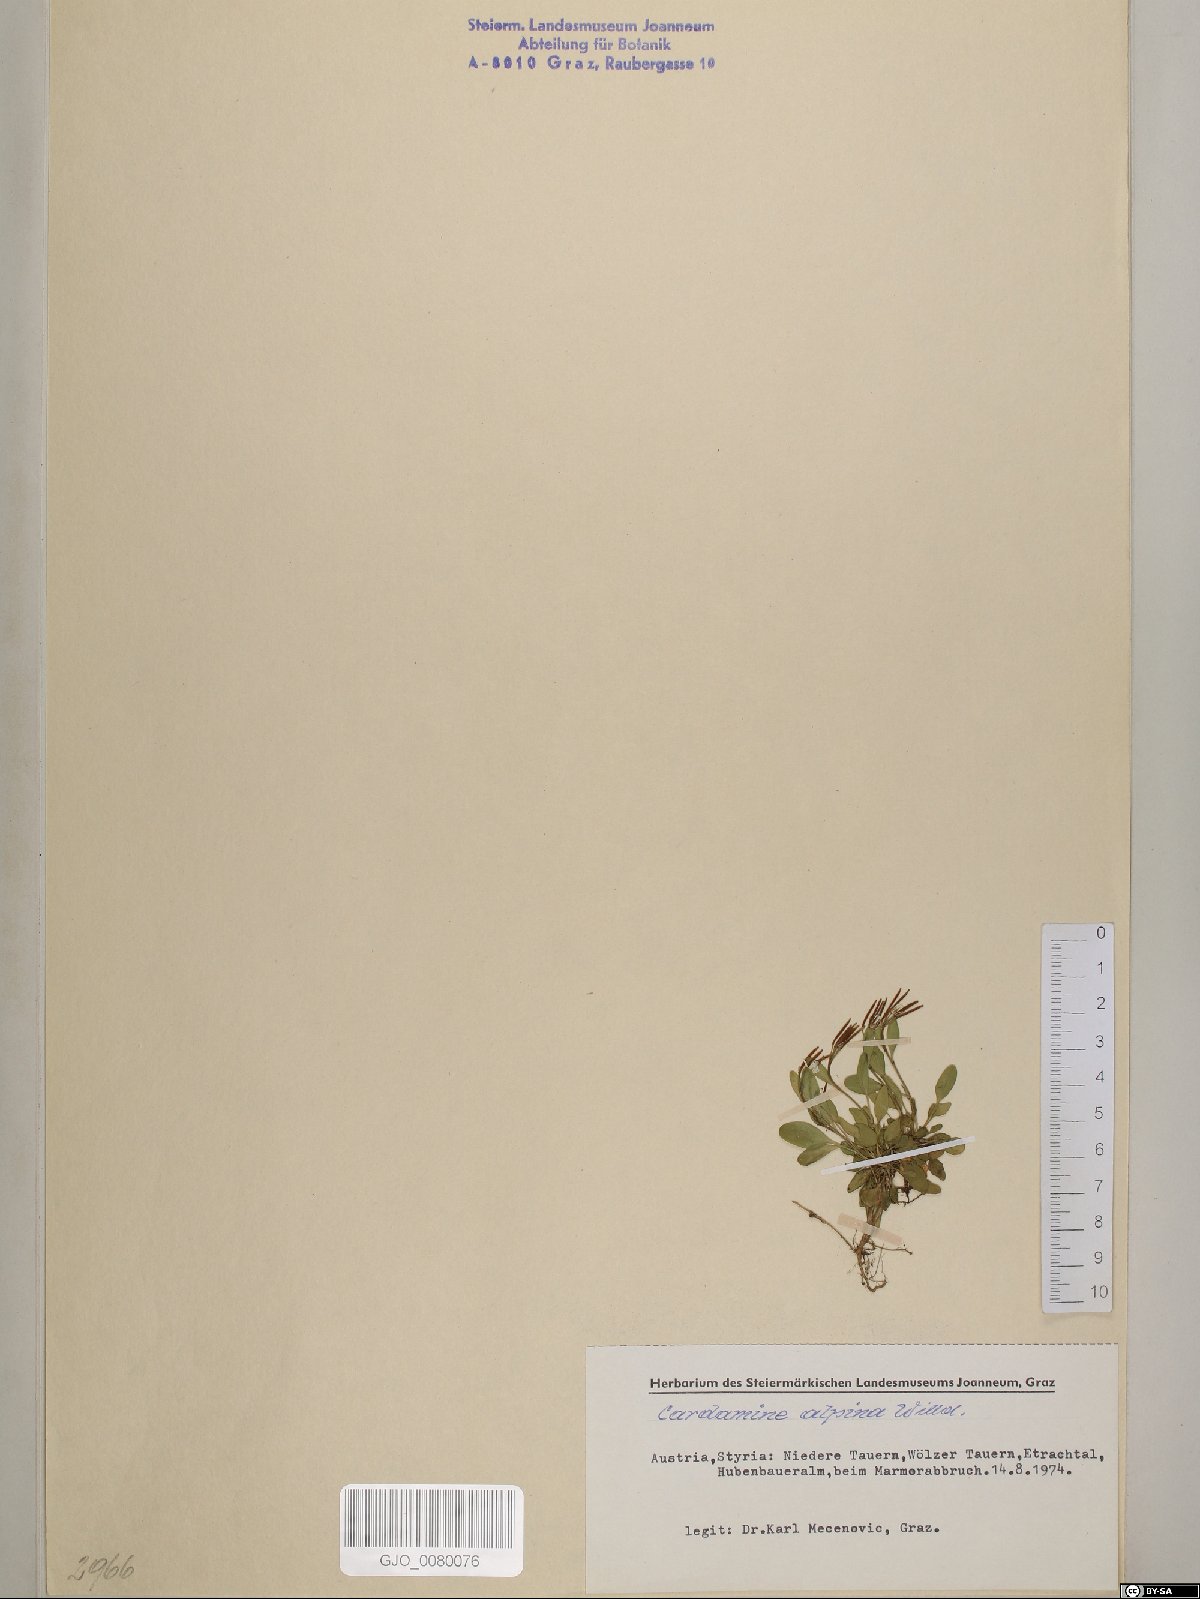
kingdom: Plantae
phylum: Tracheophyta
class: Magnoliopsida
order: Brassicales
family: Brassicaceae
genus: Cardamine
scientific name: Cardamine bellidifolia
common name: Alpine bittercress
